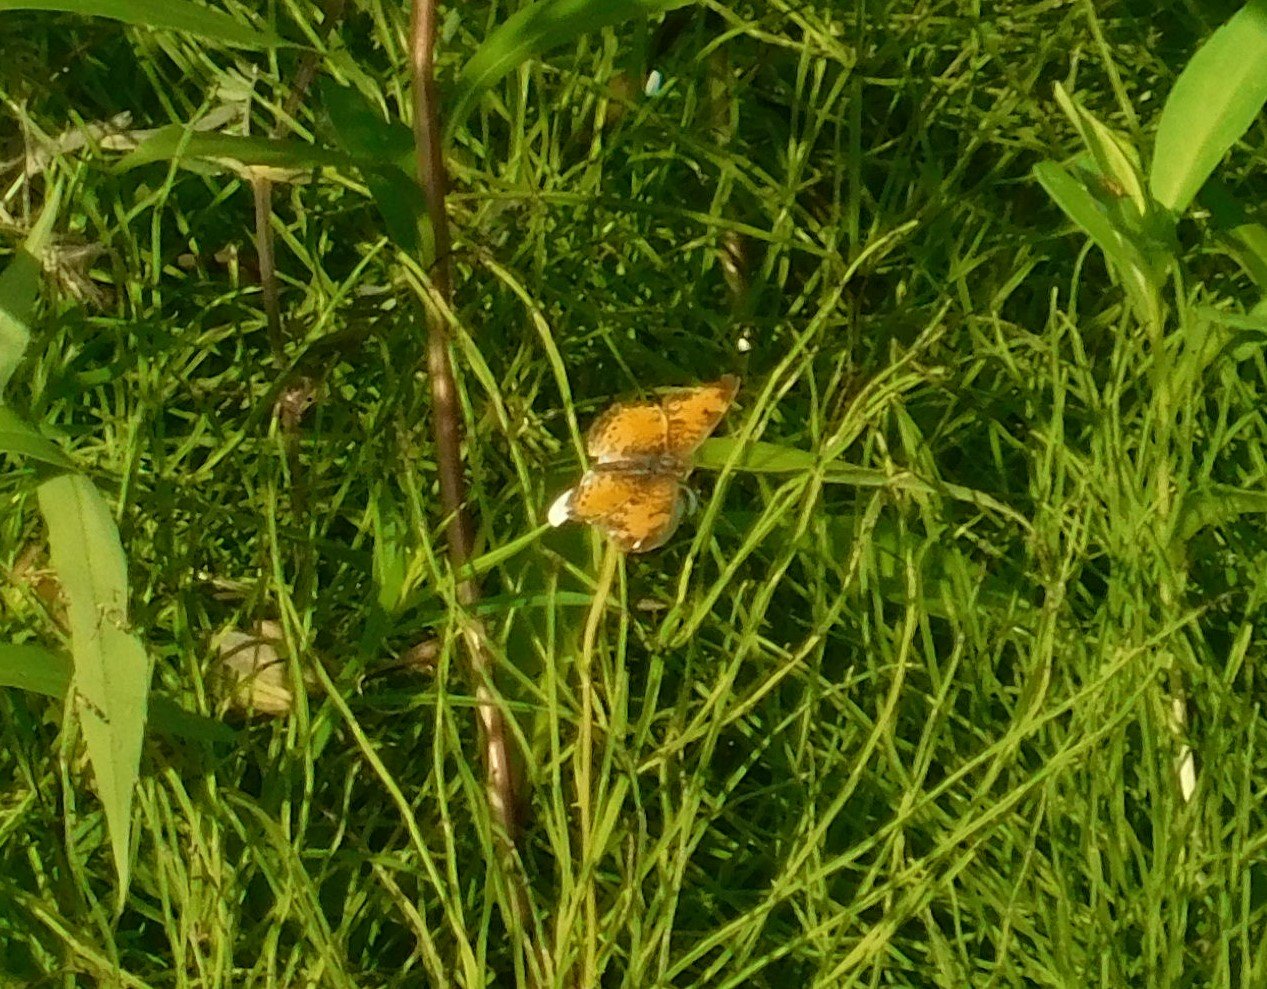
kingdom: Animalia
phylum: Arthropoda
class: Insecta
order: Lepidoptera
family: Nymphalidae
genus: Phyciodes
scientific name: Phyciodes tharos
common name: Northern Crescent
